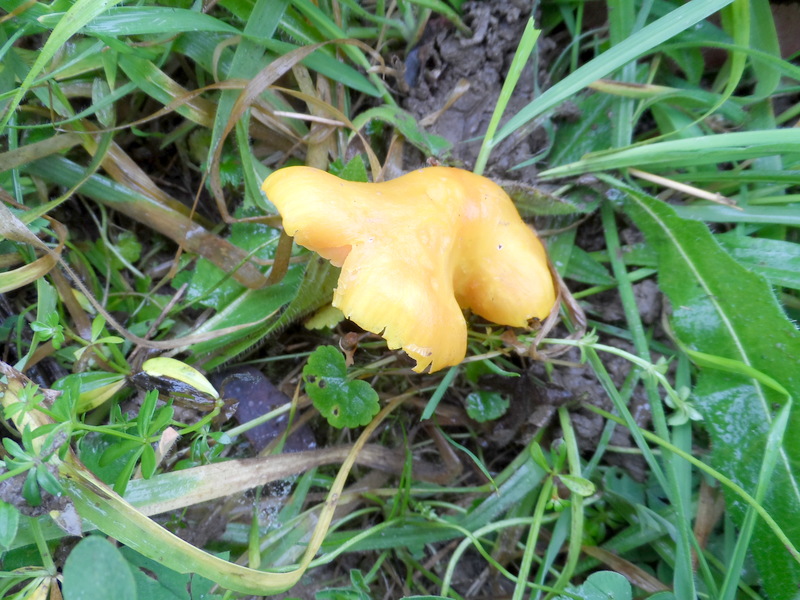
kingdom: Fungi
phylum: Basidiomycota
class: Agaricomycetes
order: Agaricales
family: Hygrophoraceae
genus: Hygrocybe
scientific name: Hygrocybe chlorophana
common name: Golden waxcap
